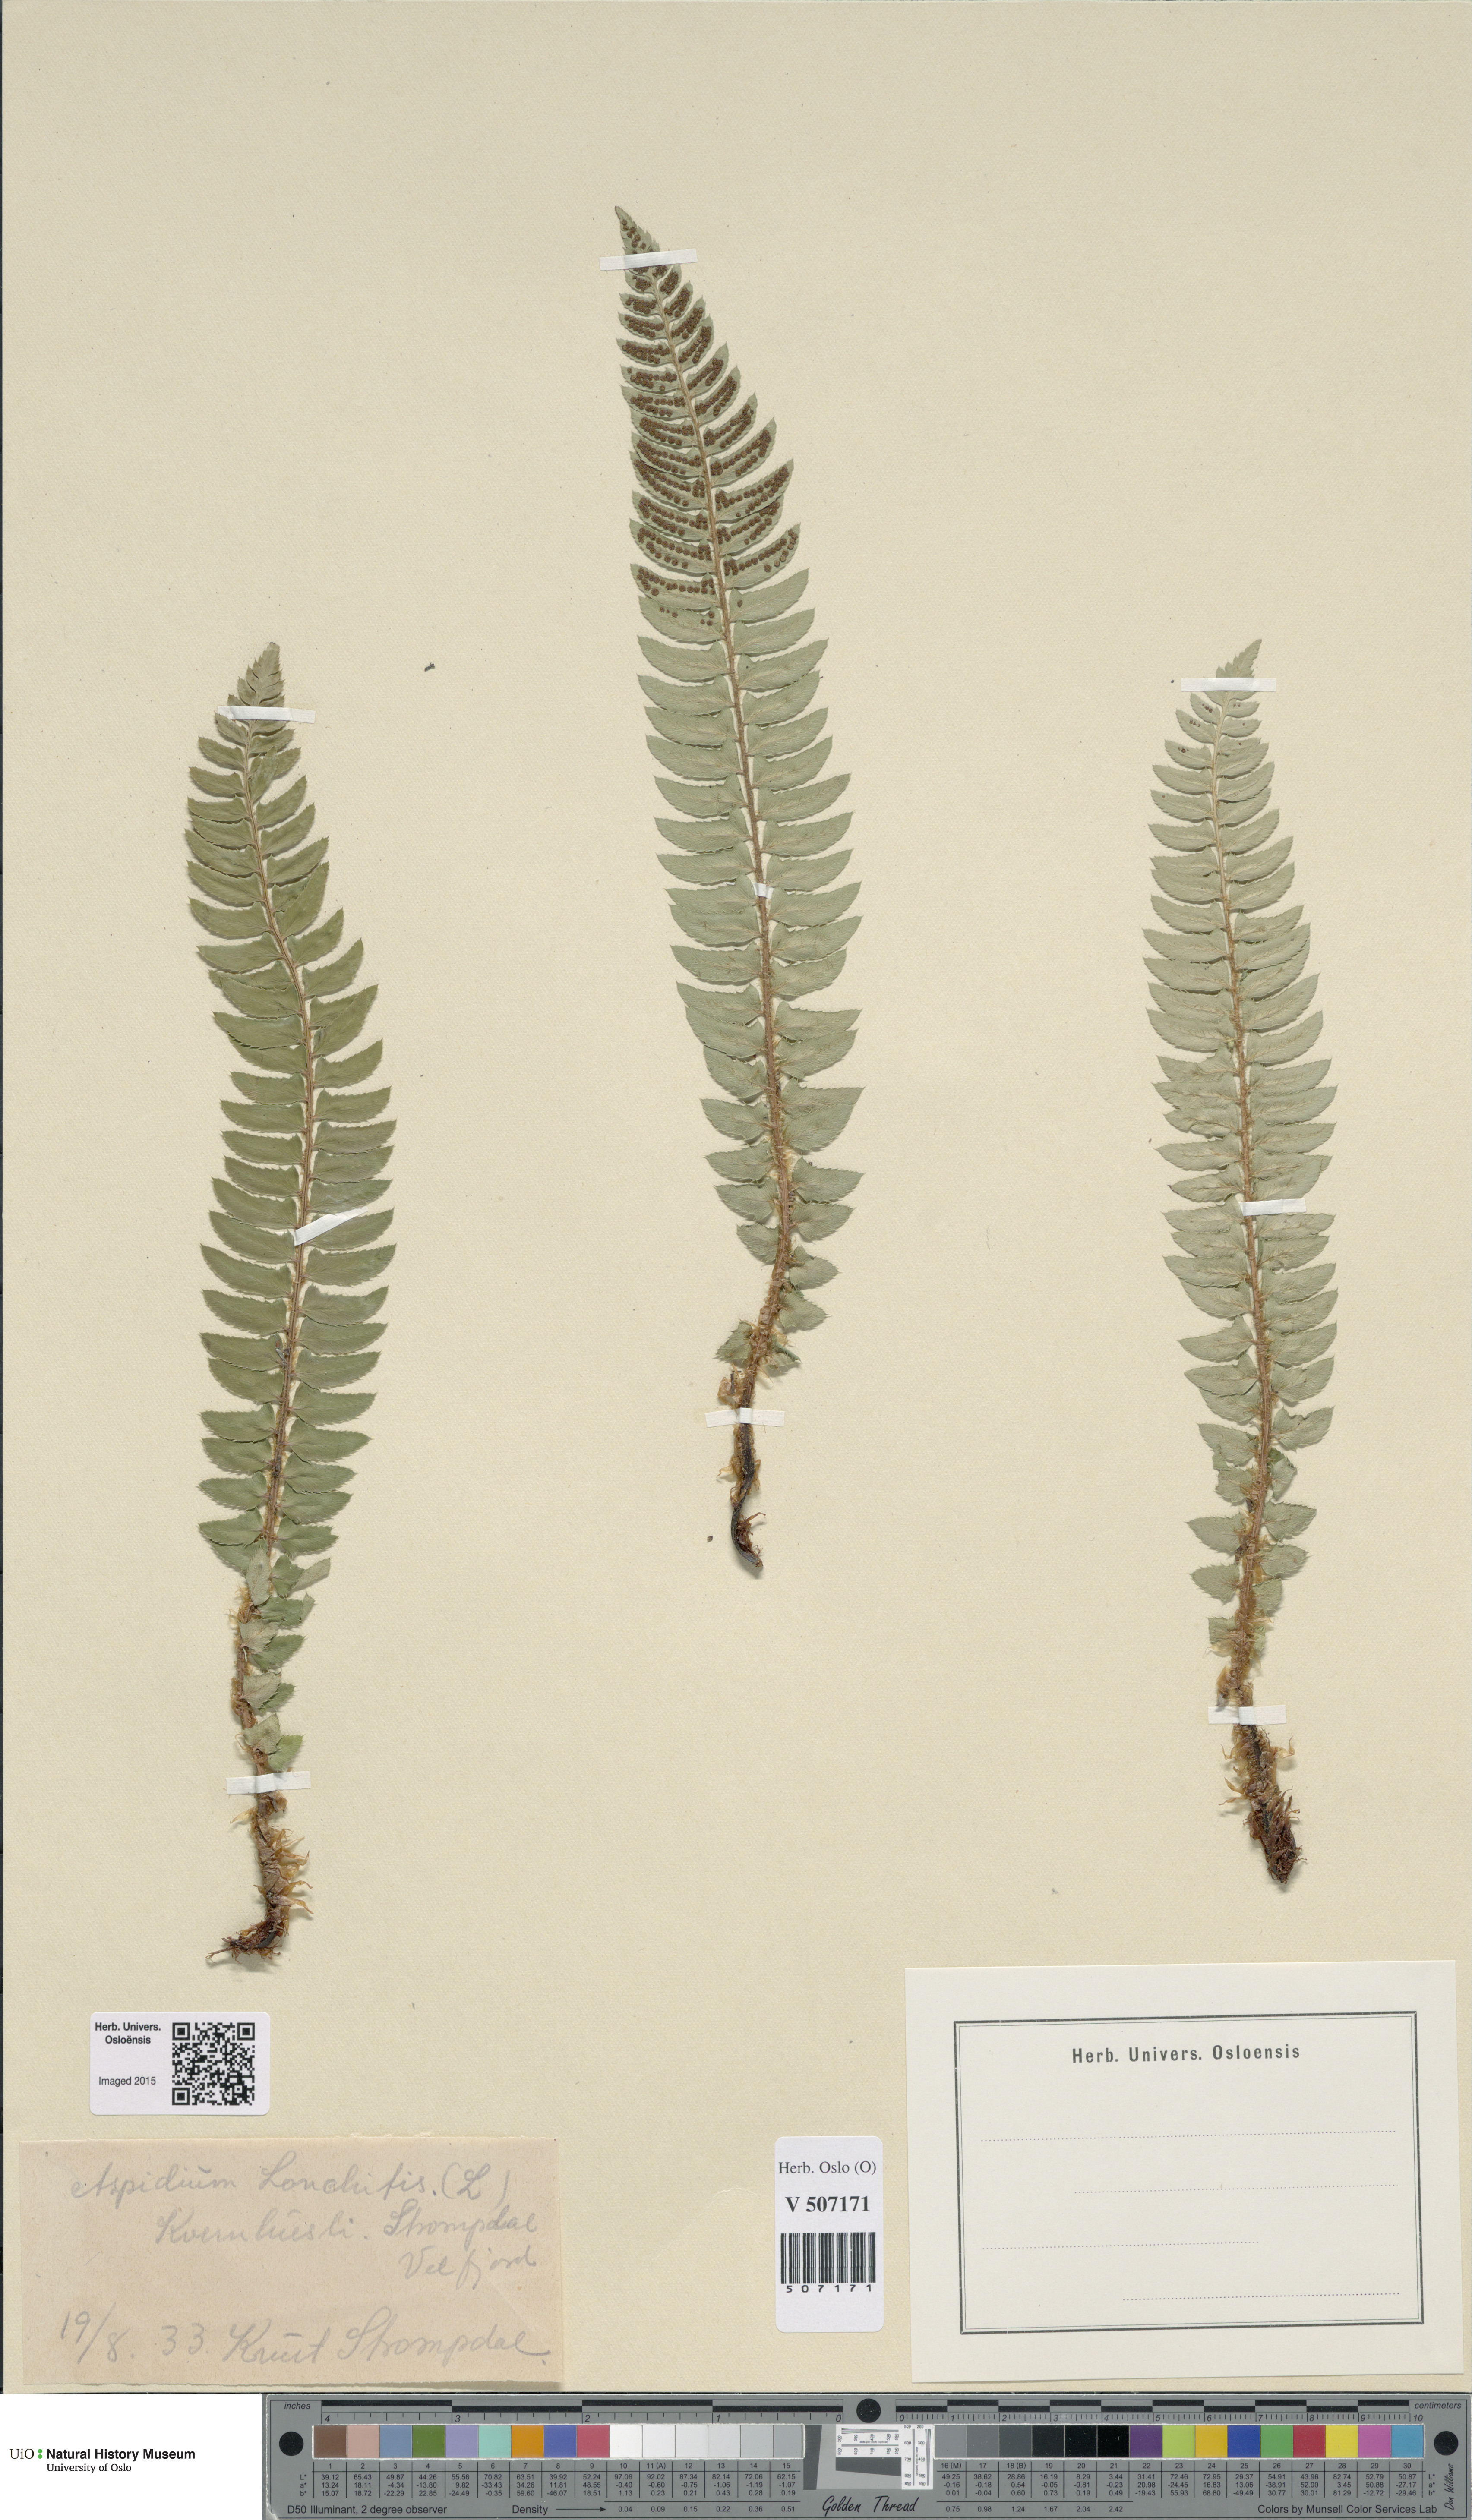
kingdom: Plantae
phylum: Tracheophyta
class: Polypodiopsida
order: Polypodiales
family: Dryopteridaceae
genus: Polystichum
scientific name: Polystichum lonchitis
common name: Holly fern
